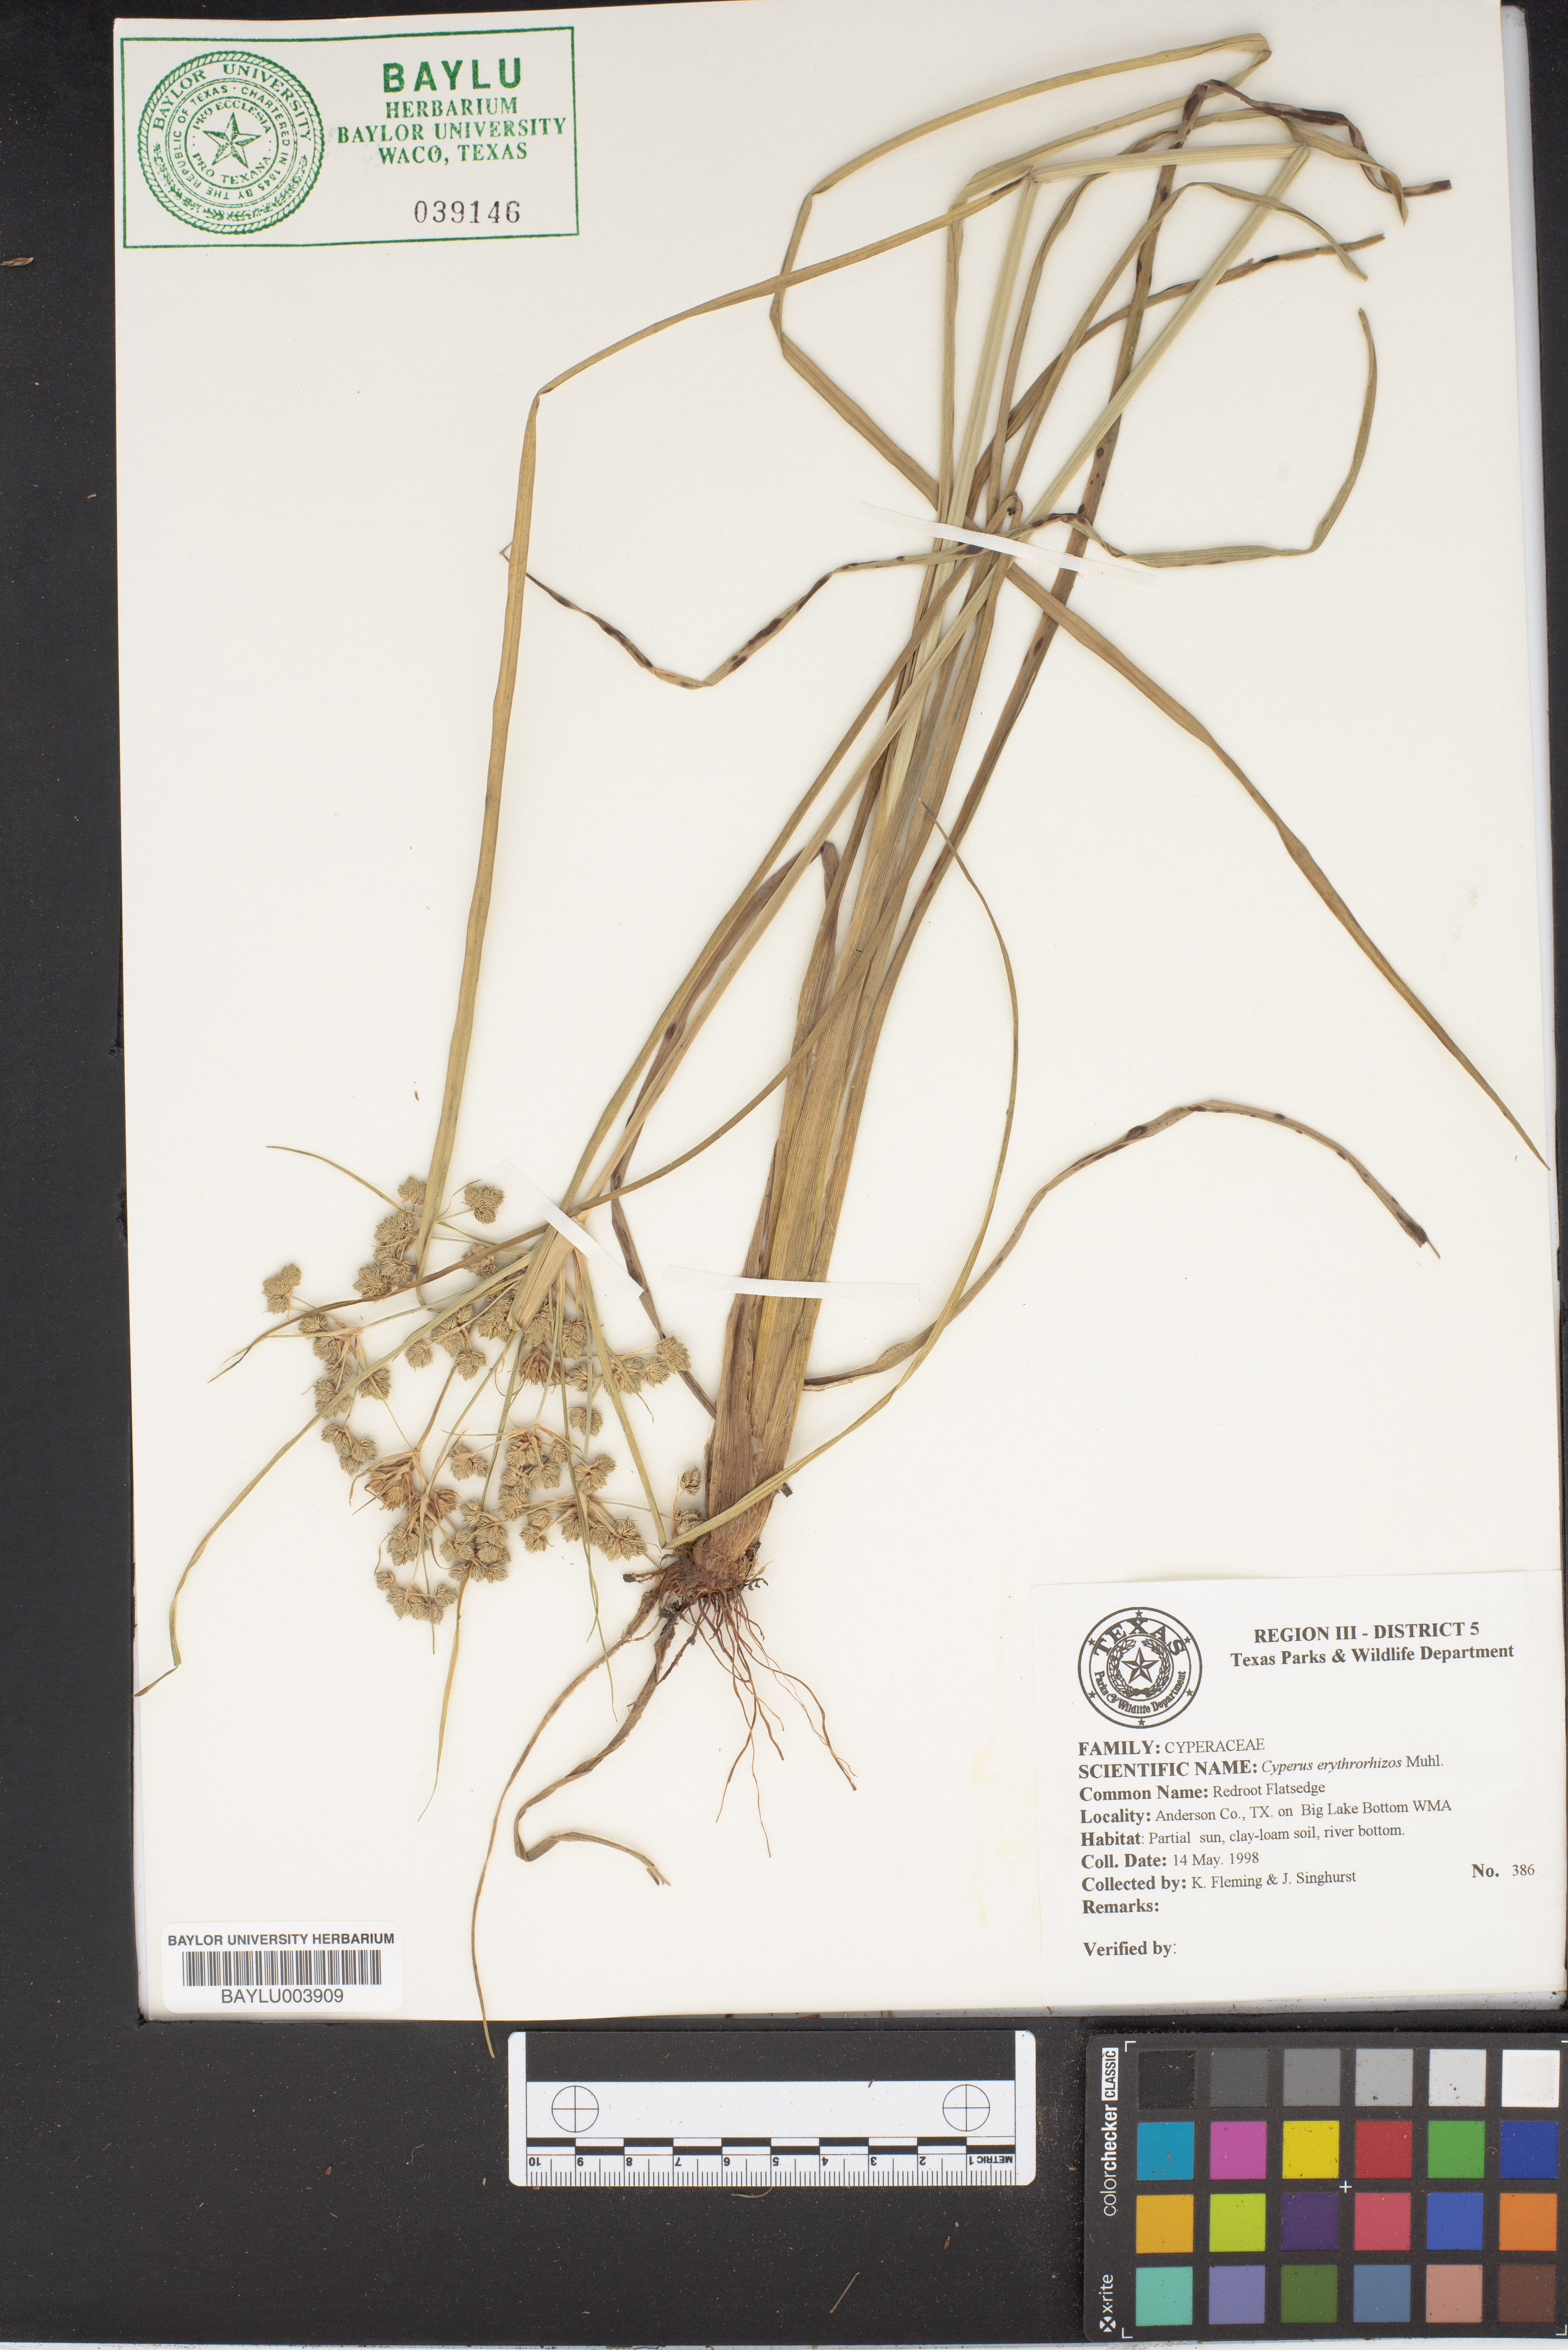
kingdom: Plantae
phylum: Tracheophyta
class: Liliopsida
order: Poales
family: Cyperaceae
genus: Cyperus
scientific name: Cyperus erythrorhizos
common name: Red-root flat sedge
